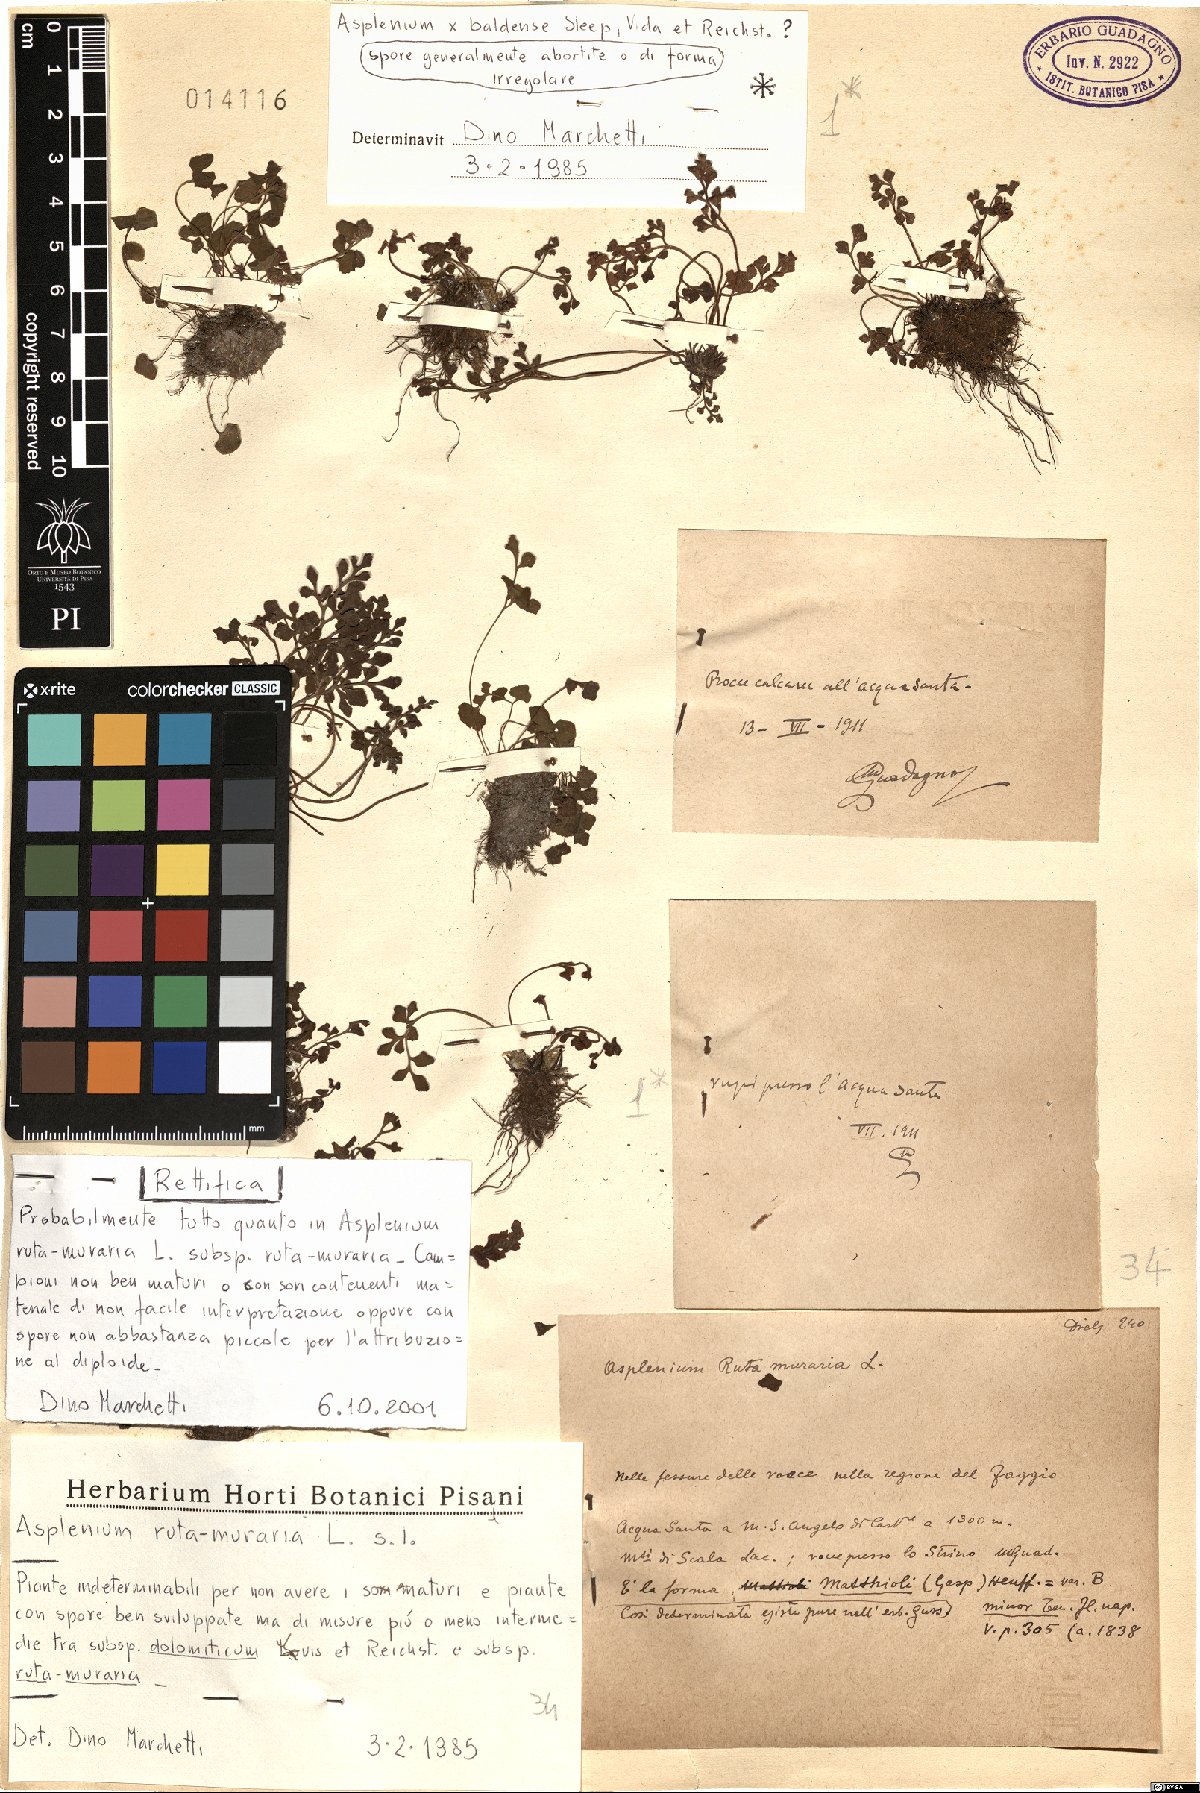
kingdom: Plantae
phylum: Tracheophyta
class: Polypodiopsida
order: Polypodiales
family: Aspleniaceae
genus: Asplenium
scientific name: Asplenium ruta-muraria
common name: Wall-rue
